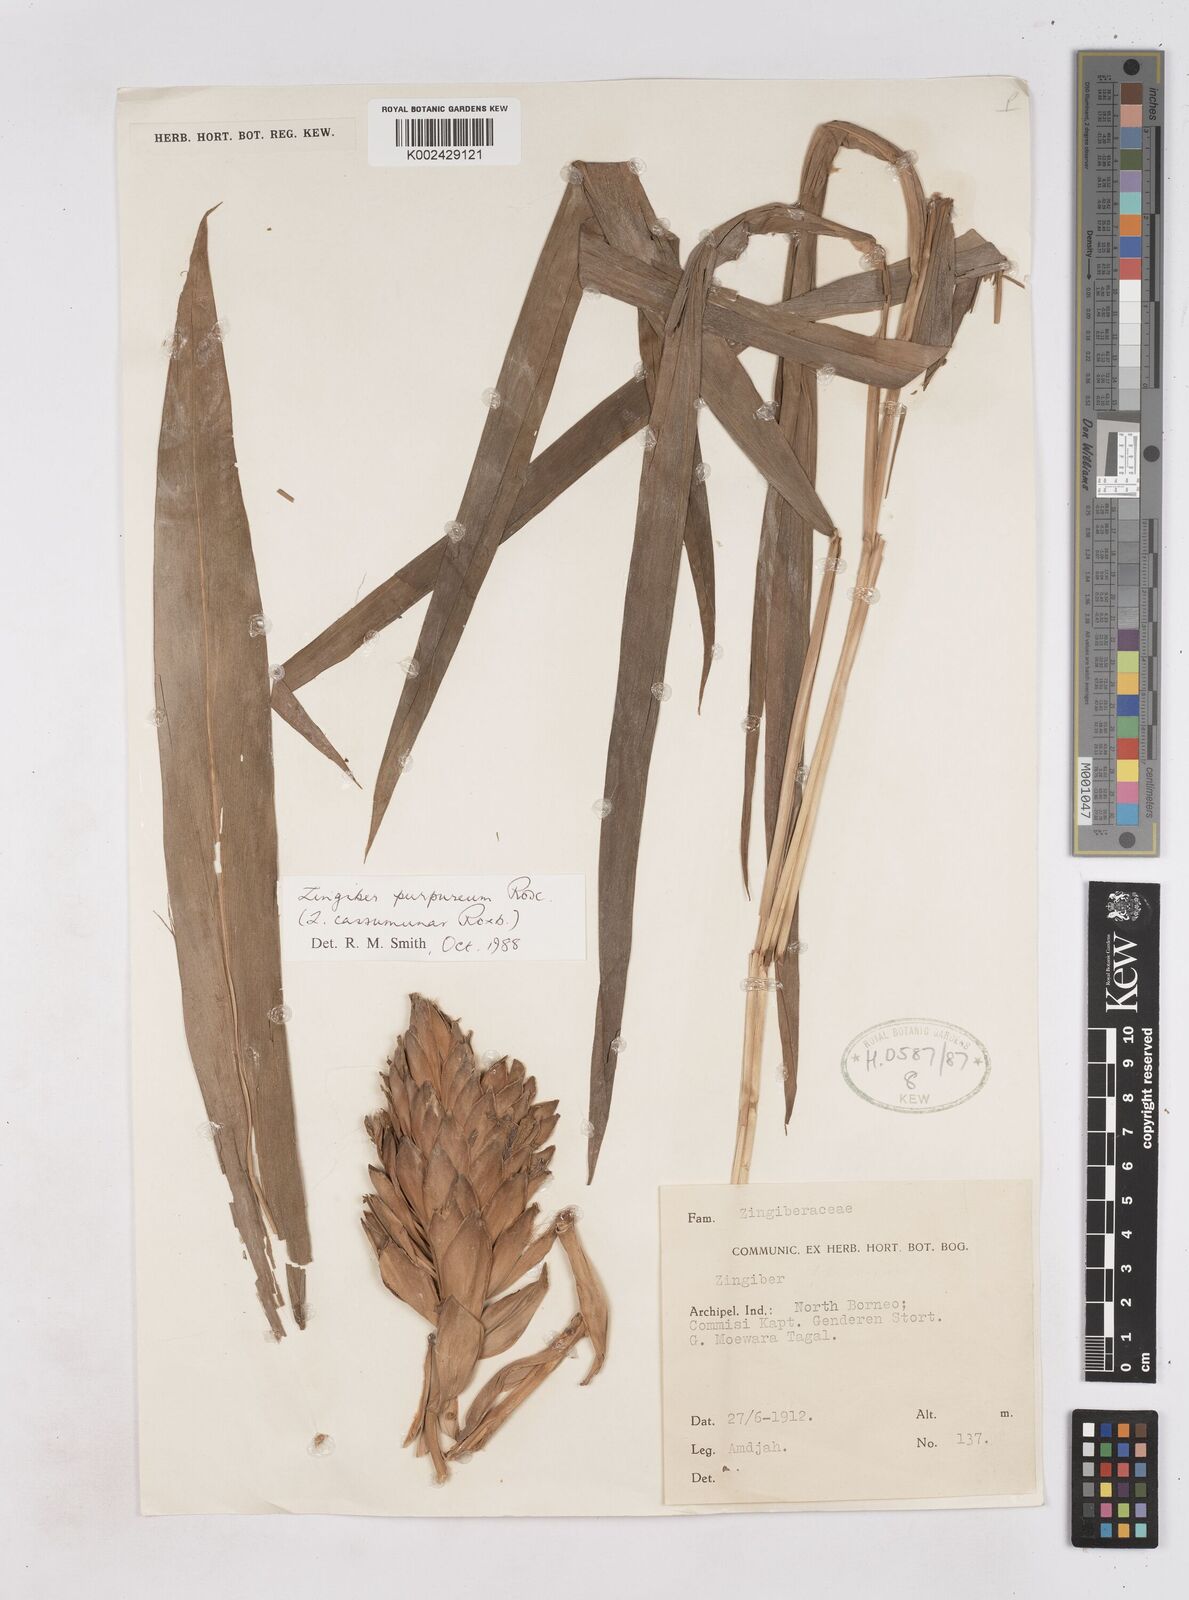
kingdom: Plantae
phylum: Tracheophyta
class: Liliopsida
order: Zingiberales
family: Zingiberaceae
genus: Zingiber
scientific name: Zingiber montanum
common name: Bengal ginger
